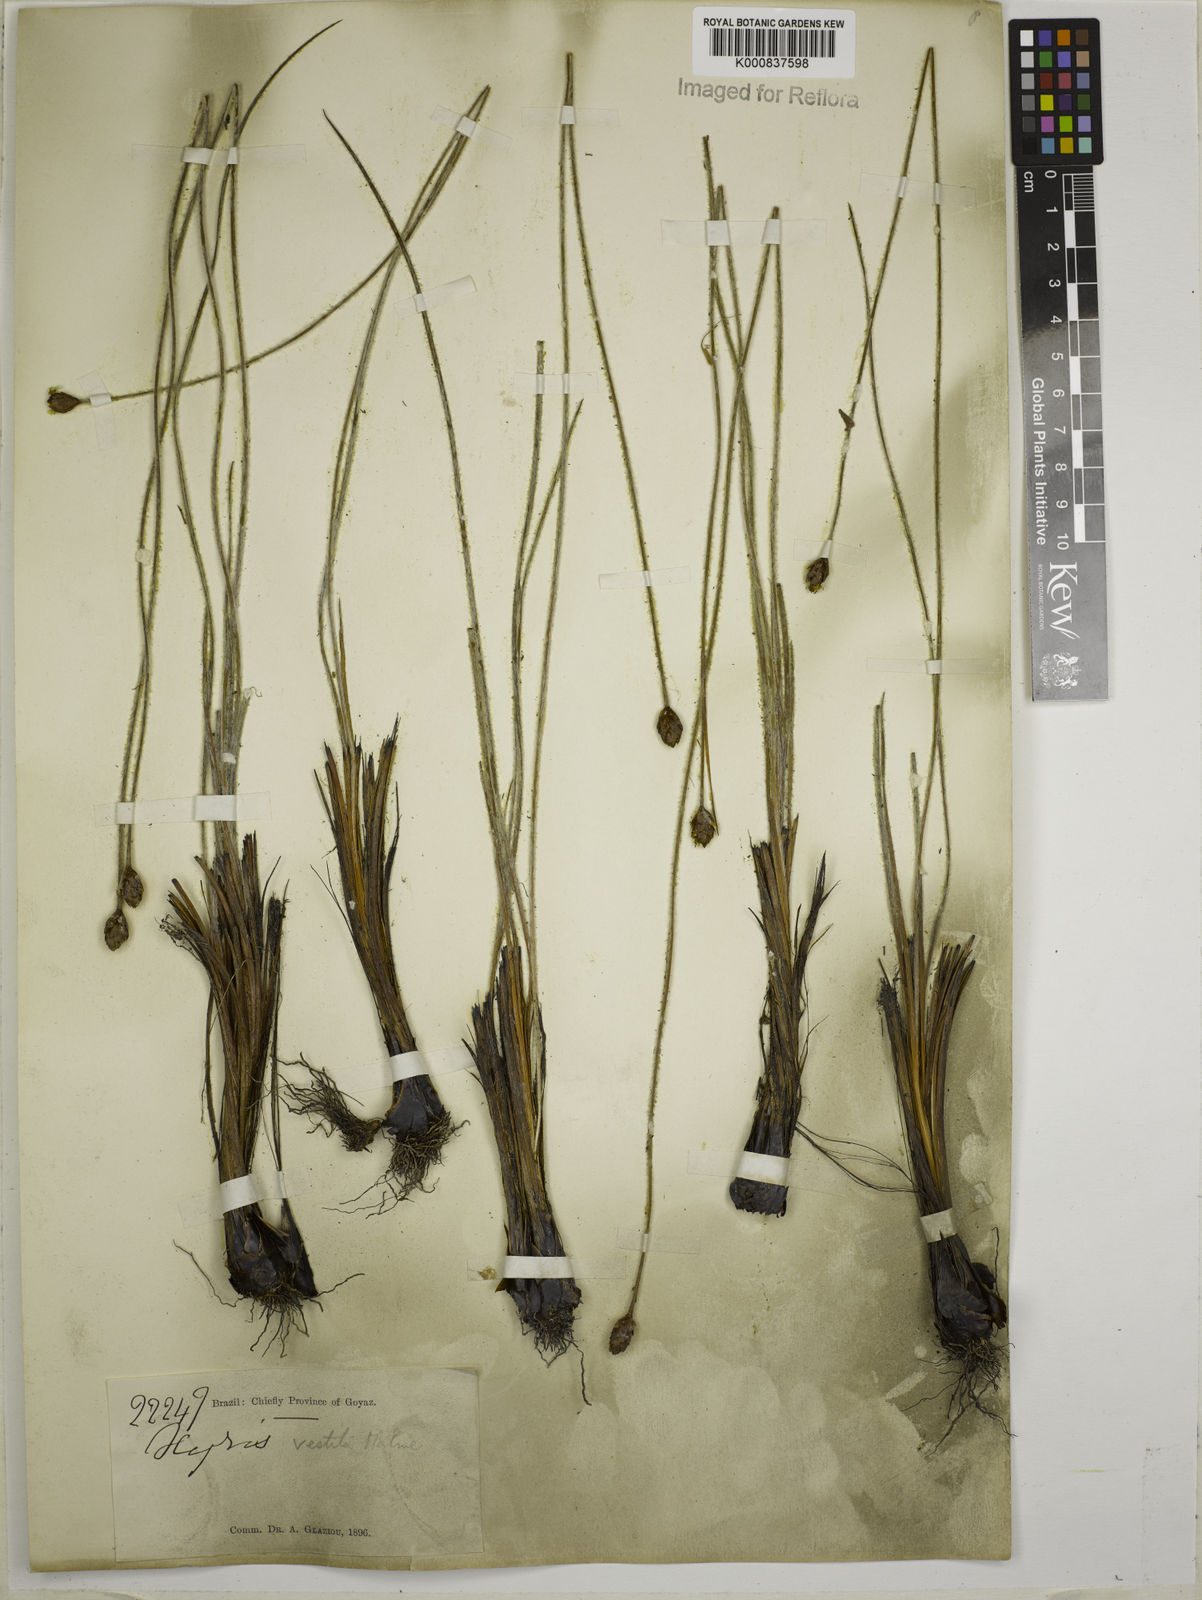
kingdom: Plantae
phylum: Tracheophyta
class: Liliopsida
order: Poales
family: Xyridaceae
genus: Xyris
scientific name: Xyris vestita
